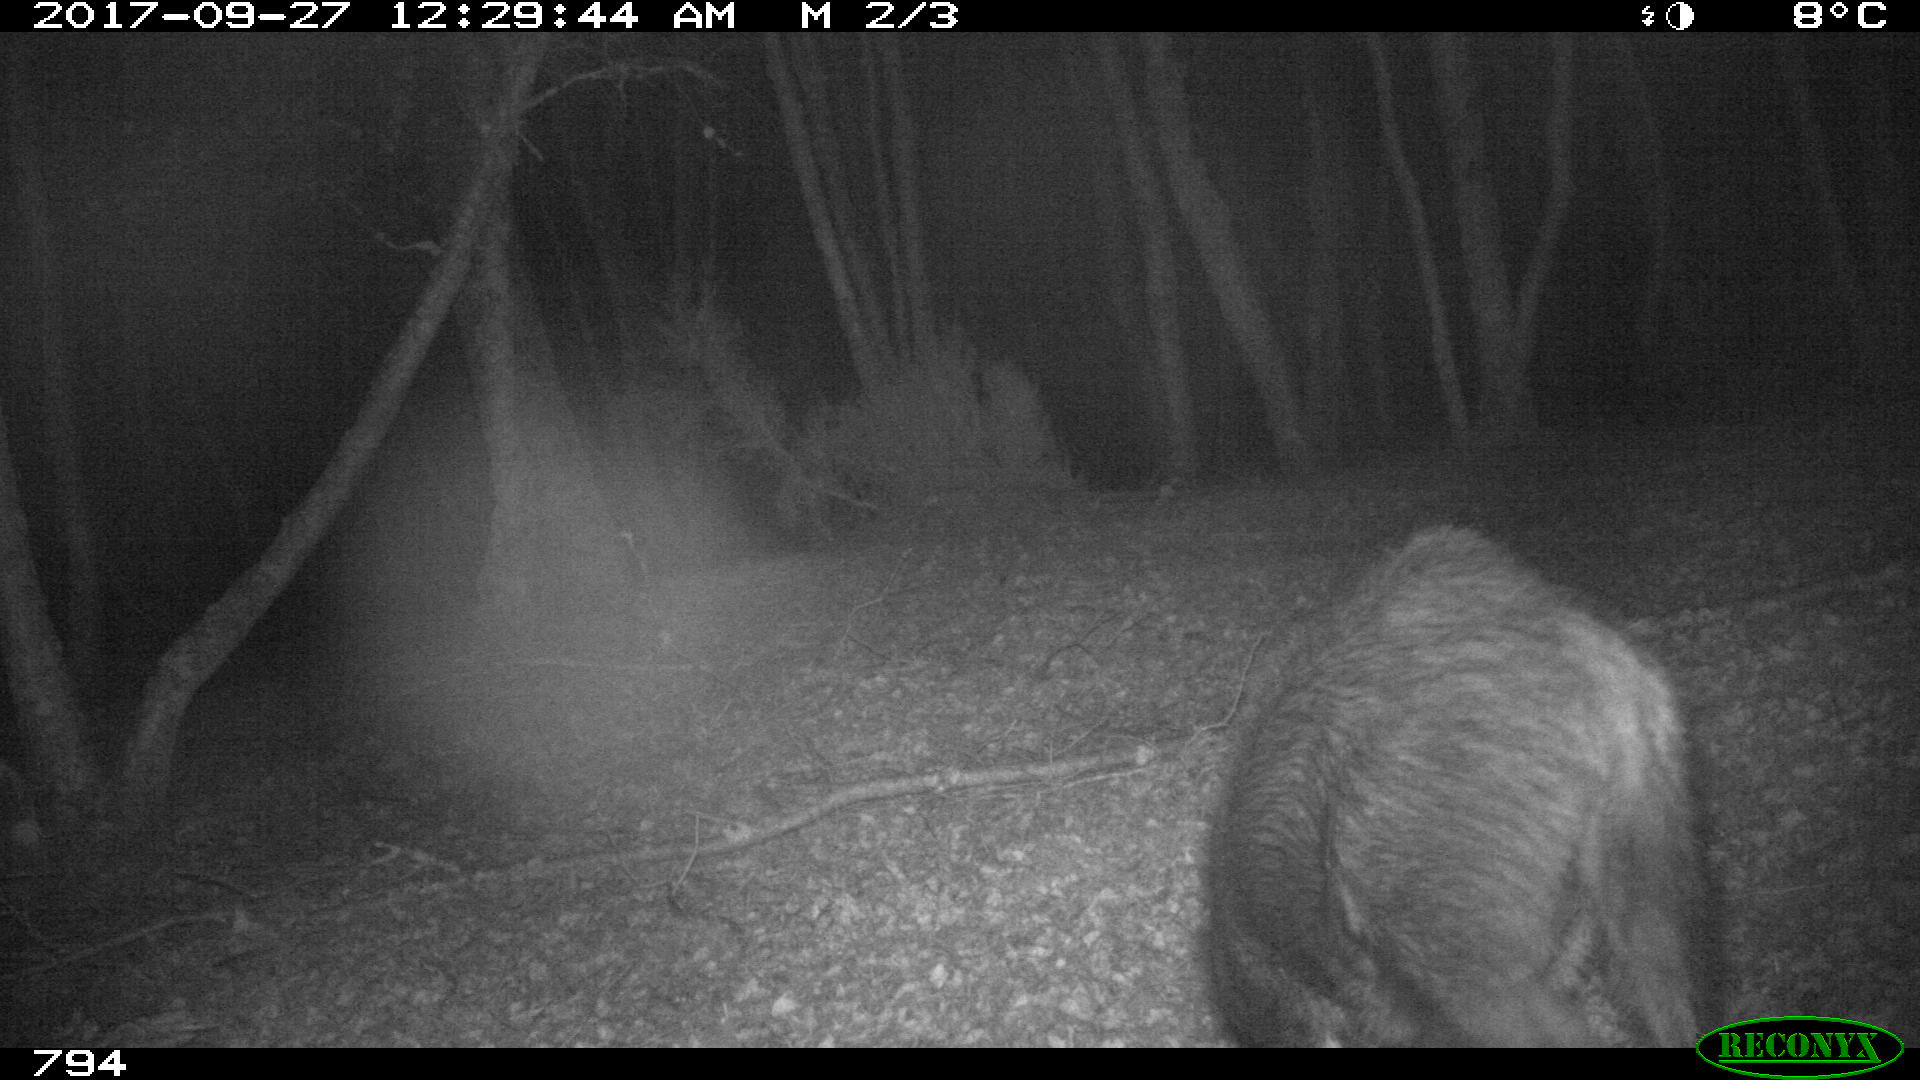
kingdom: Animalia
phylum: Chordata
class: Mammalia
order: Artiodactyla
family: Suidae
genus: Sus
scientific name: Sus scrofa
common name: Wild boar
